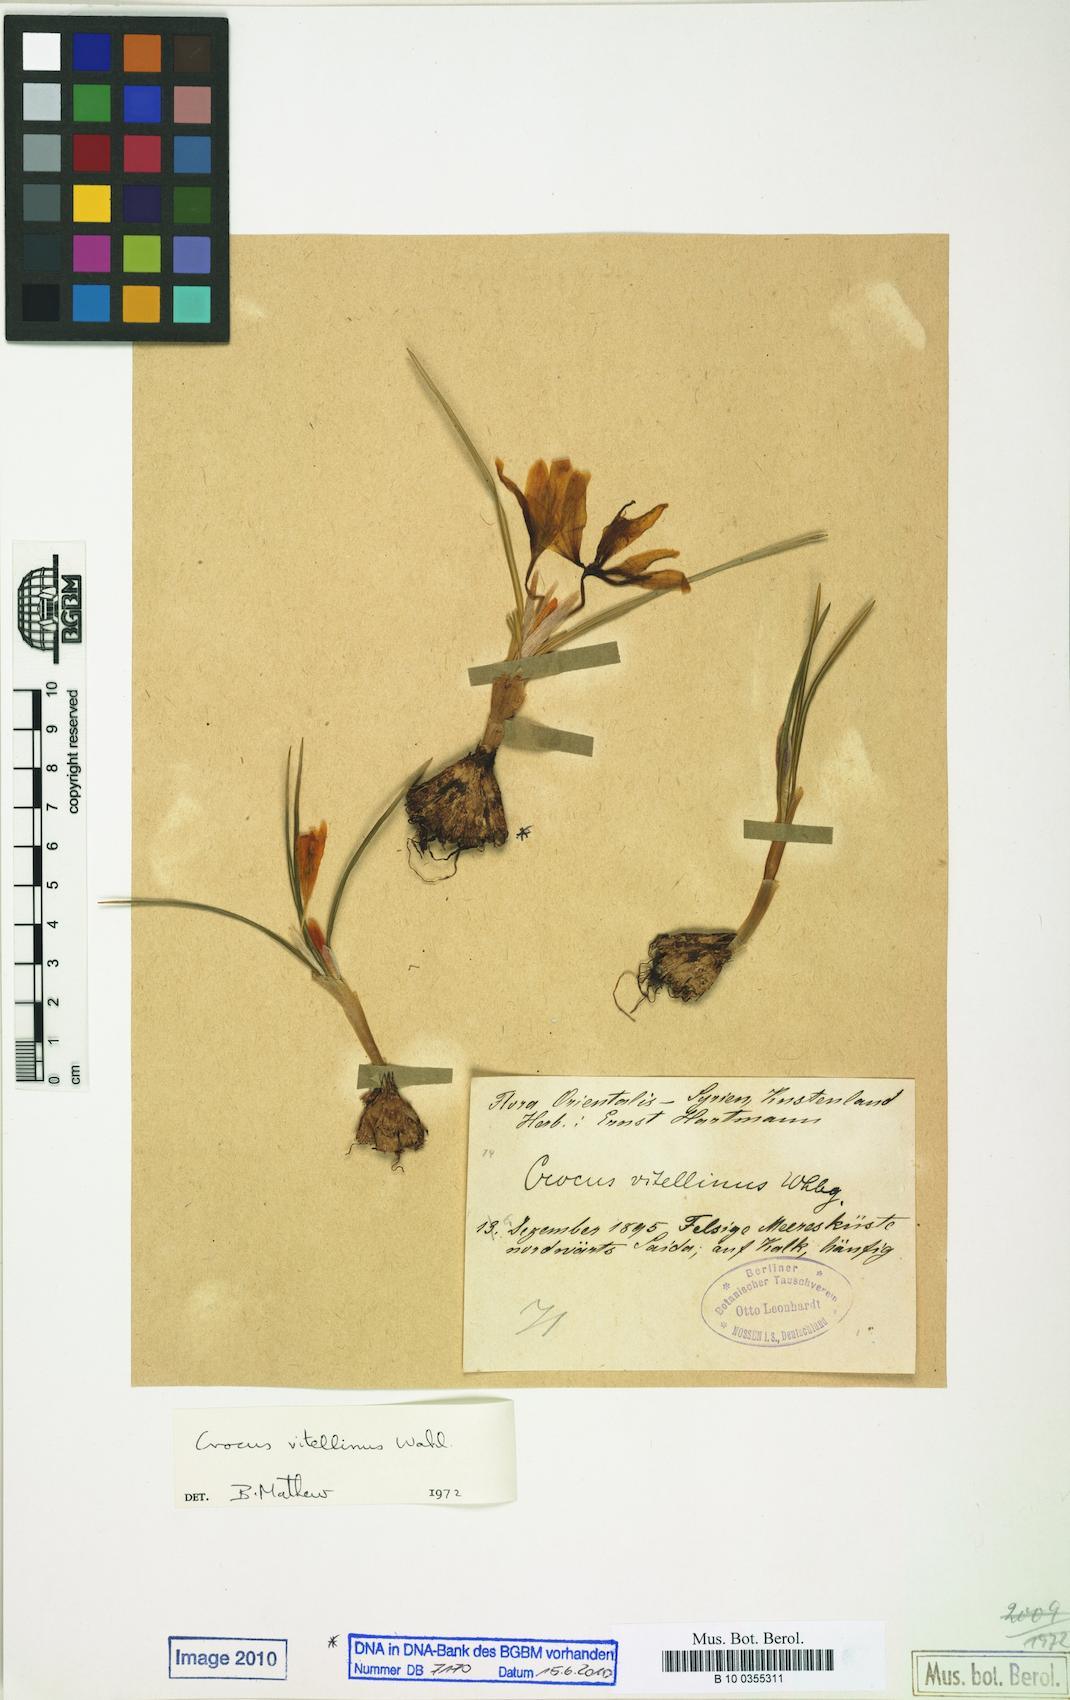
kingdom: Plantae
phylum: Tracheophyta
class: Liliopsida
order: Asparagales
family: Iridaceae
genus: Crocus
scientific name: Crocus vitellinus
